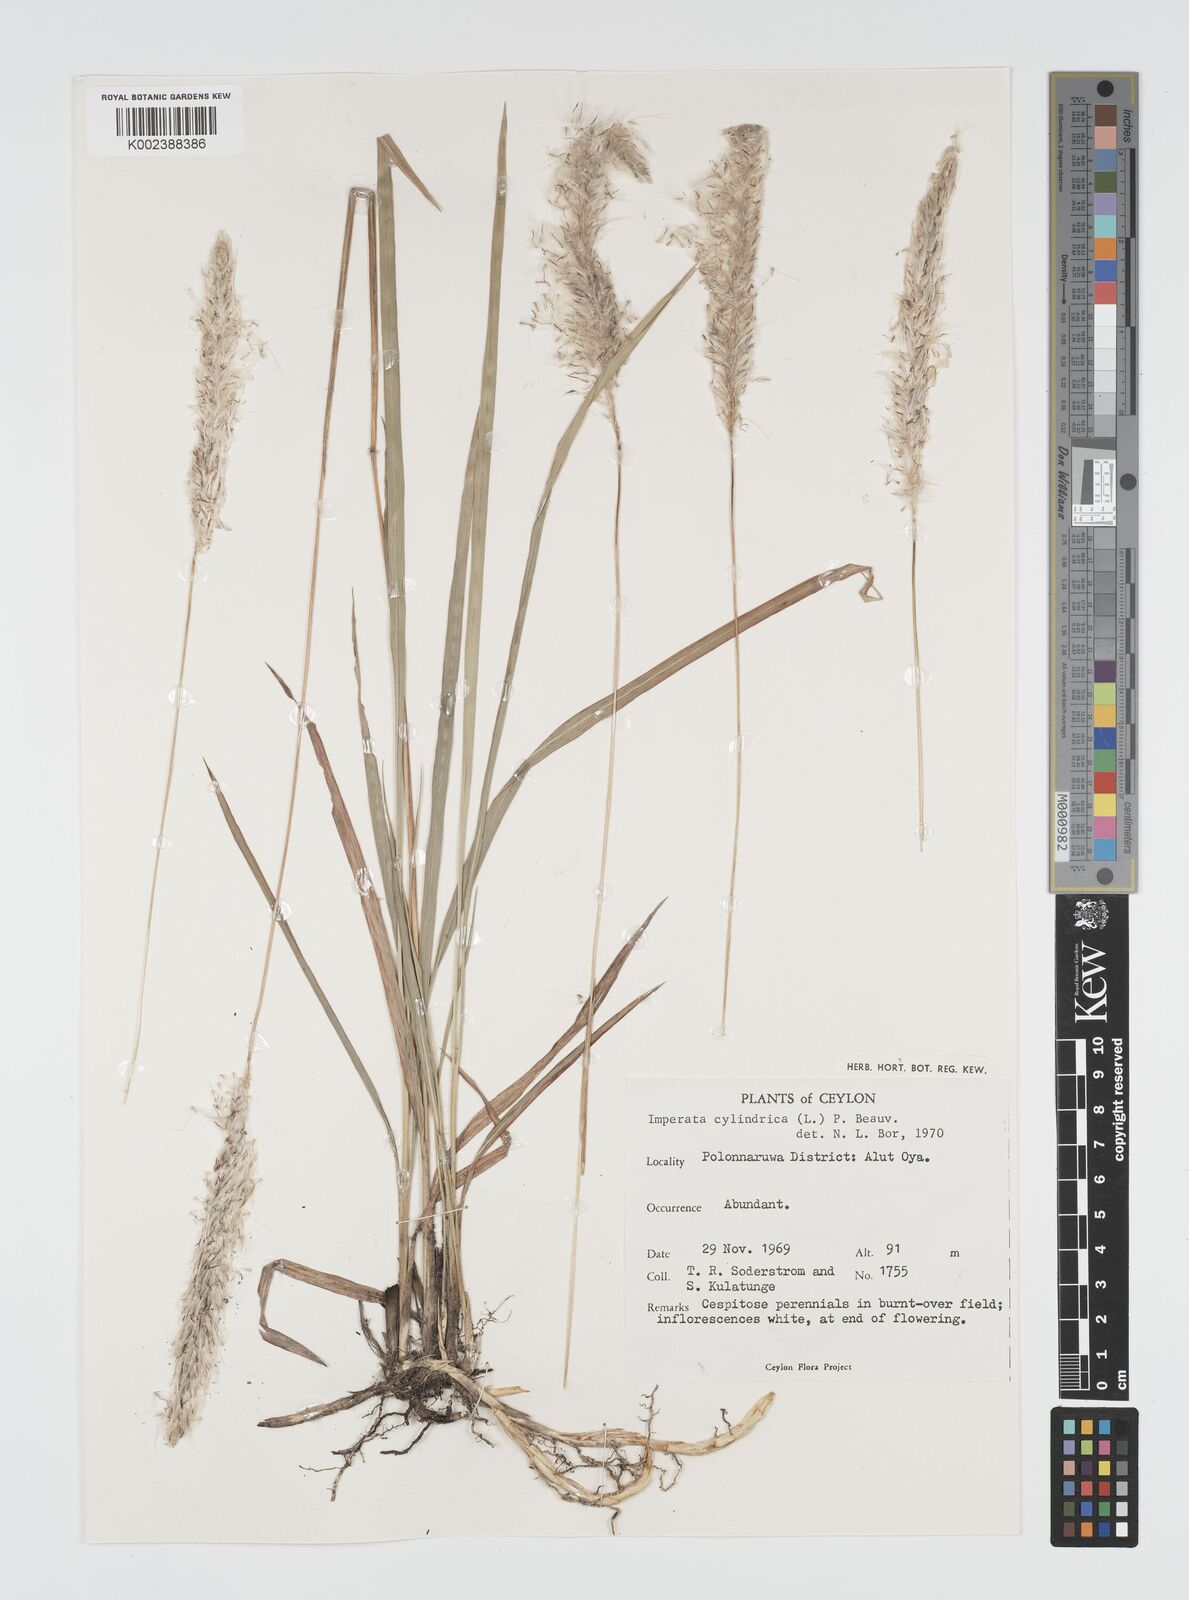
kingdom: Plantae
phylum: Tracheophyta
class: Liliopsida
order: Poales
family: Poaceae
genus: Imperata
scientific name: Imperata cylindrica
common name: Cogongrass
